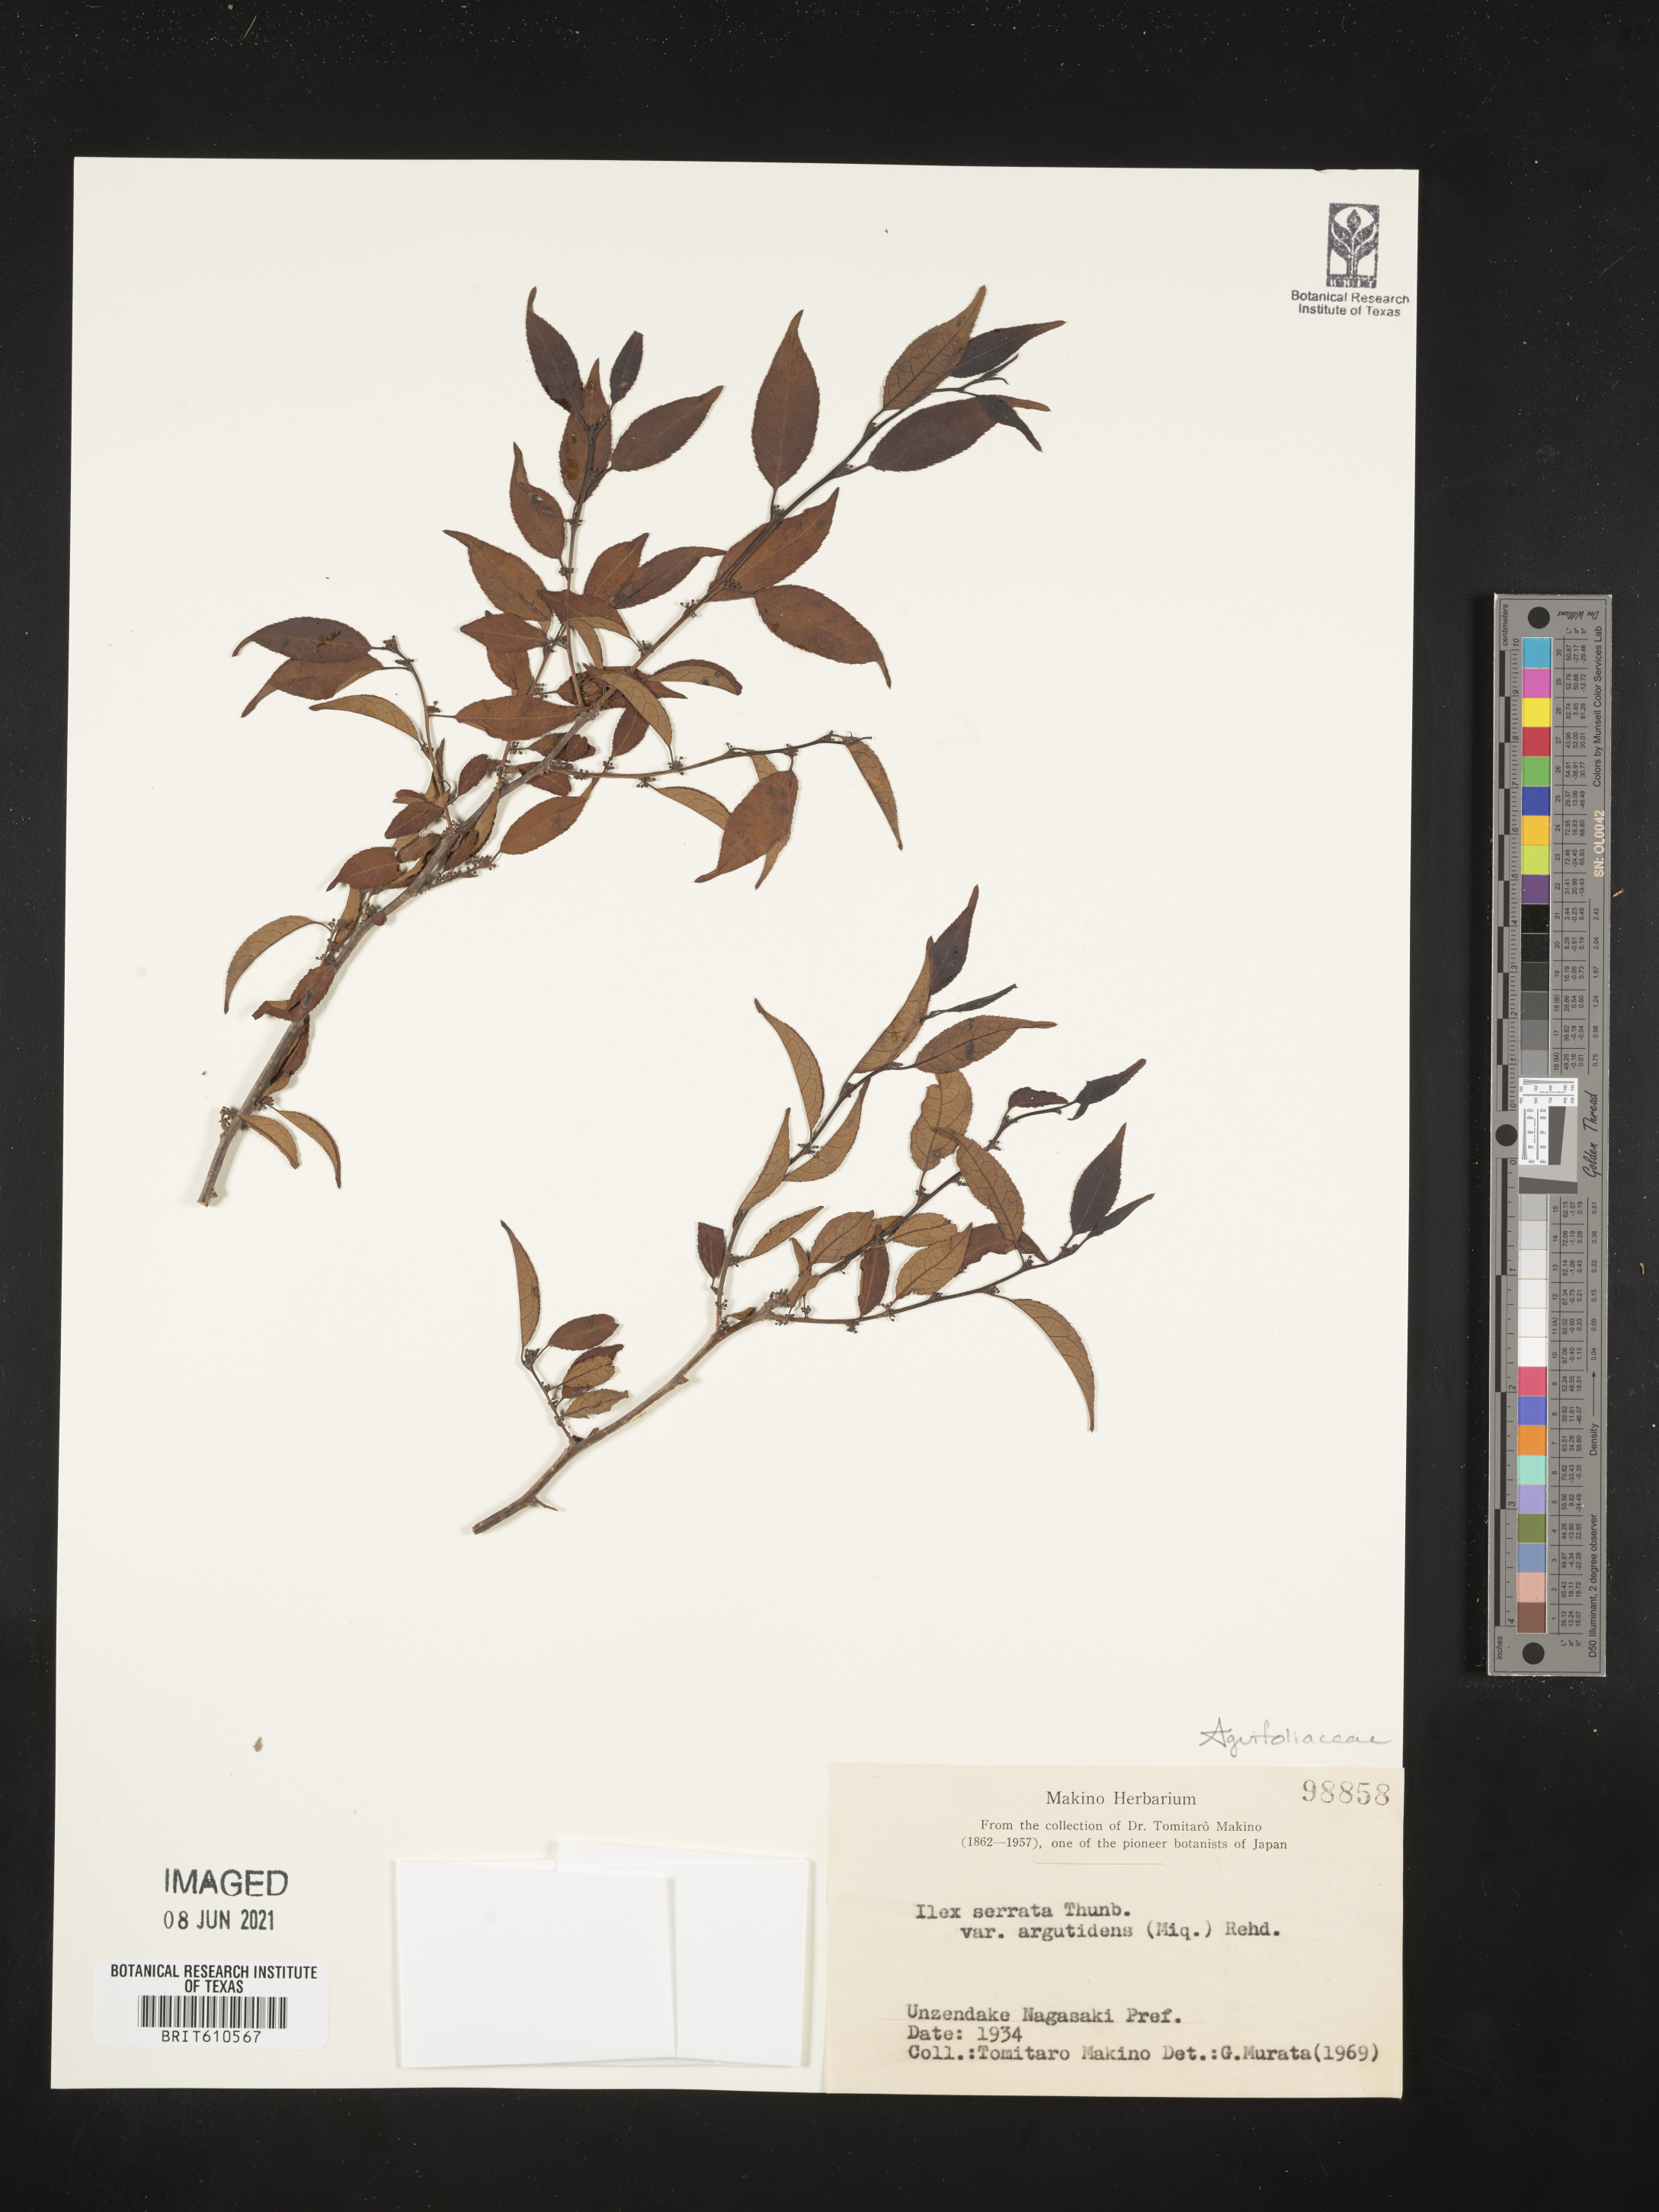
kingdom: Plantae
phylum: Tracheophyta
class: Magnoliopsida
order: Aquifoliales
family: Aquifoliaceae
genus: Ilex
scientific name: Ilex serrata
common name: Japanese winterberry
